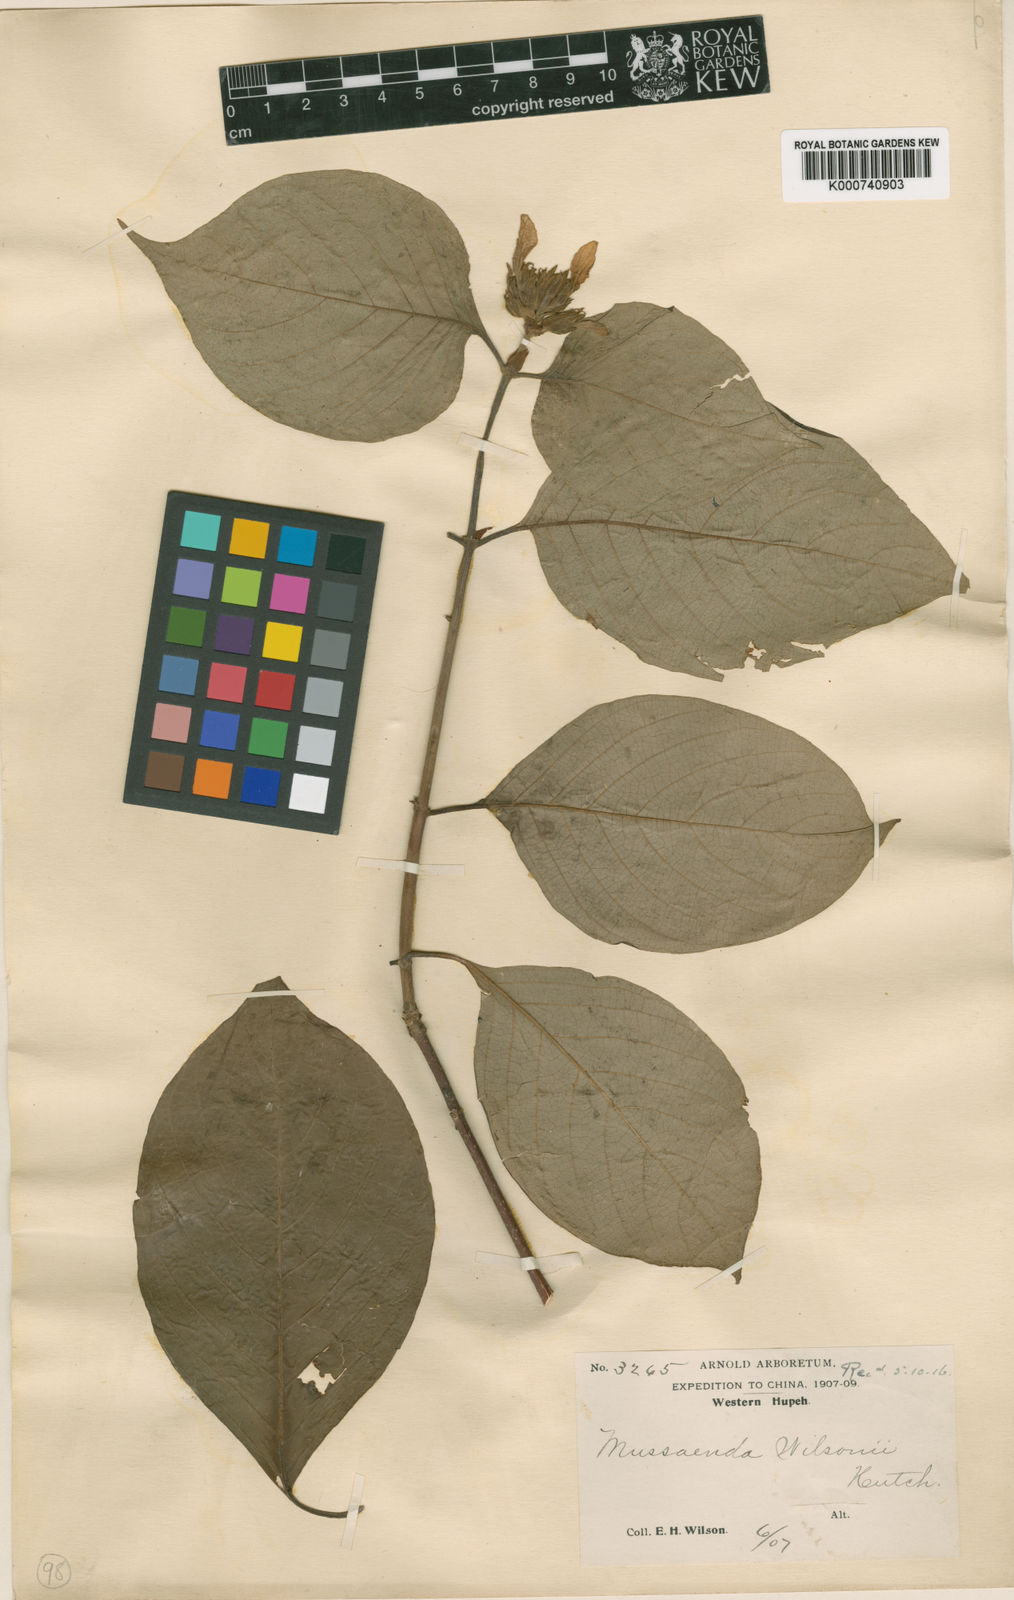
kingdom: Plantae
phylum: Tracheophyta
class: Magnoliopsida
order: Gentianales
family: Rubiaceae
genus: Mussaenda
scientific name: Mussaenda shikokiana
